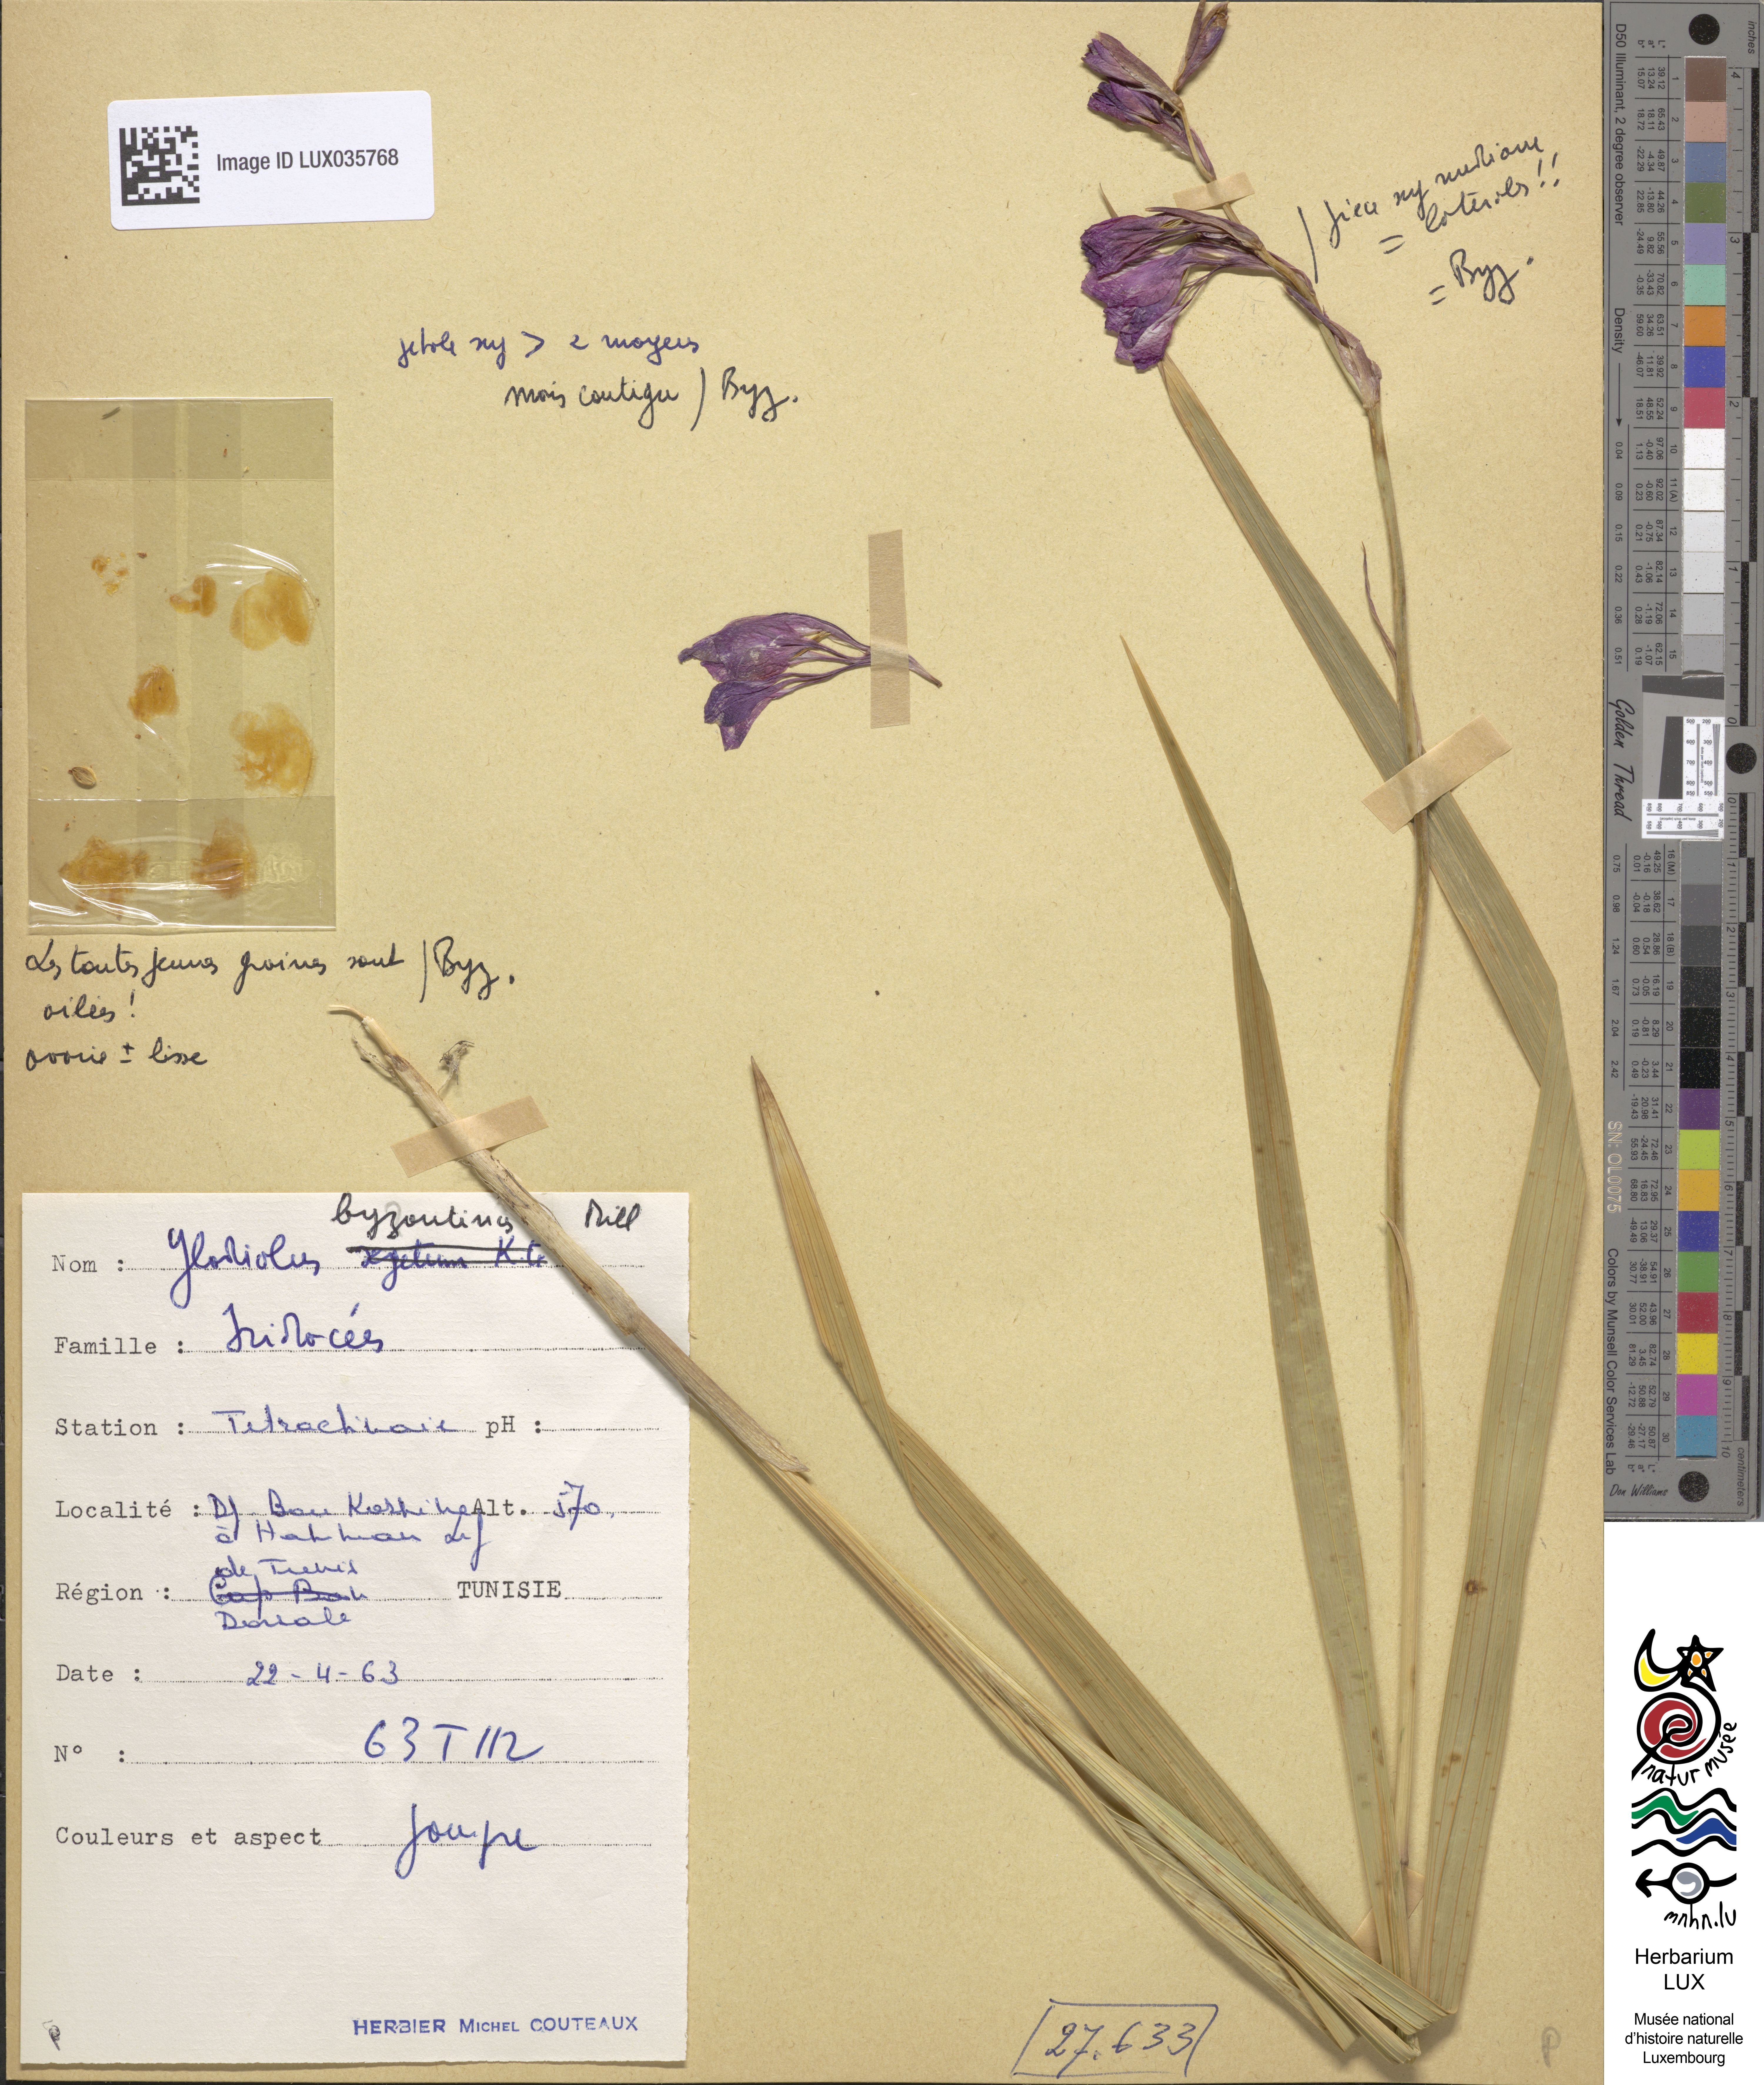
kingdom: Plantae
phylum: Tracheophyta
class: Liliopsida
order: Asparagales
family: Iridaceae
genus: Gladiolus
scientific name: Gladiolus byzantinus
